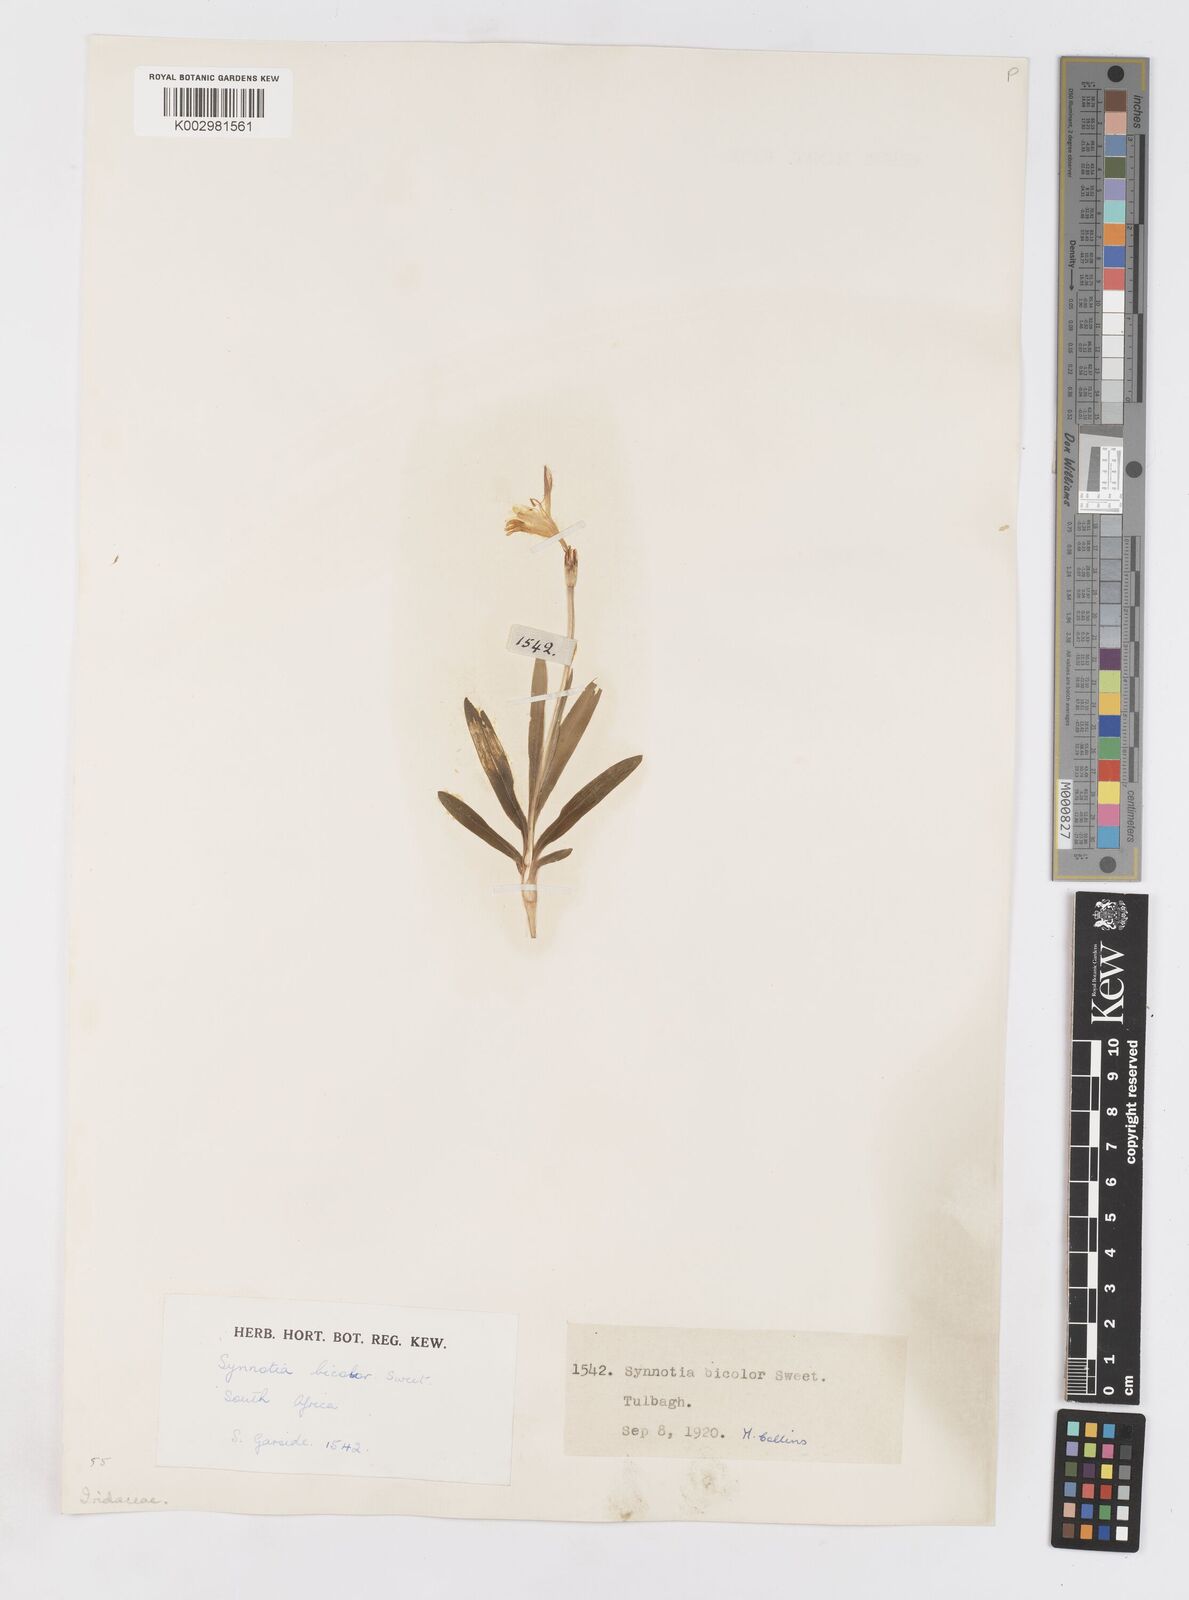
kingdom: Plantae
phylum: Tracheophyta
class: Liliopsida
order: Asparagales
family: Iridaceae
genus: Sparaxis
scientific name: Sparaxis
